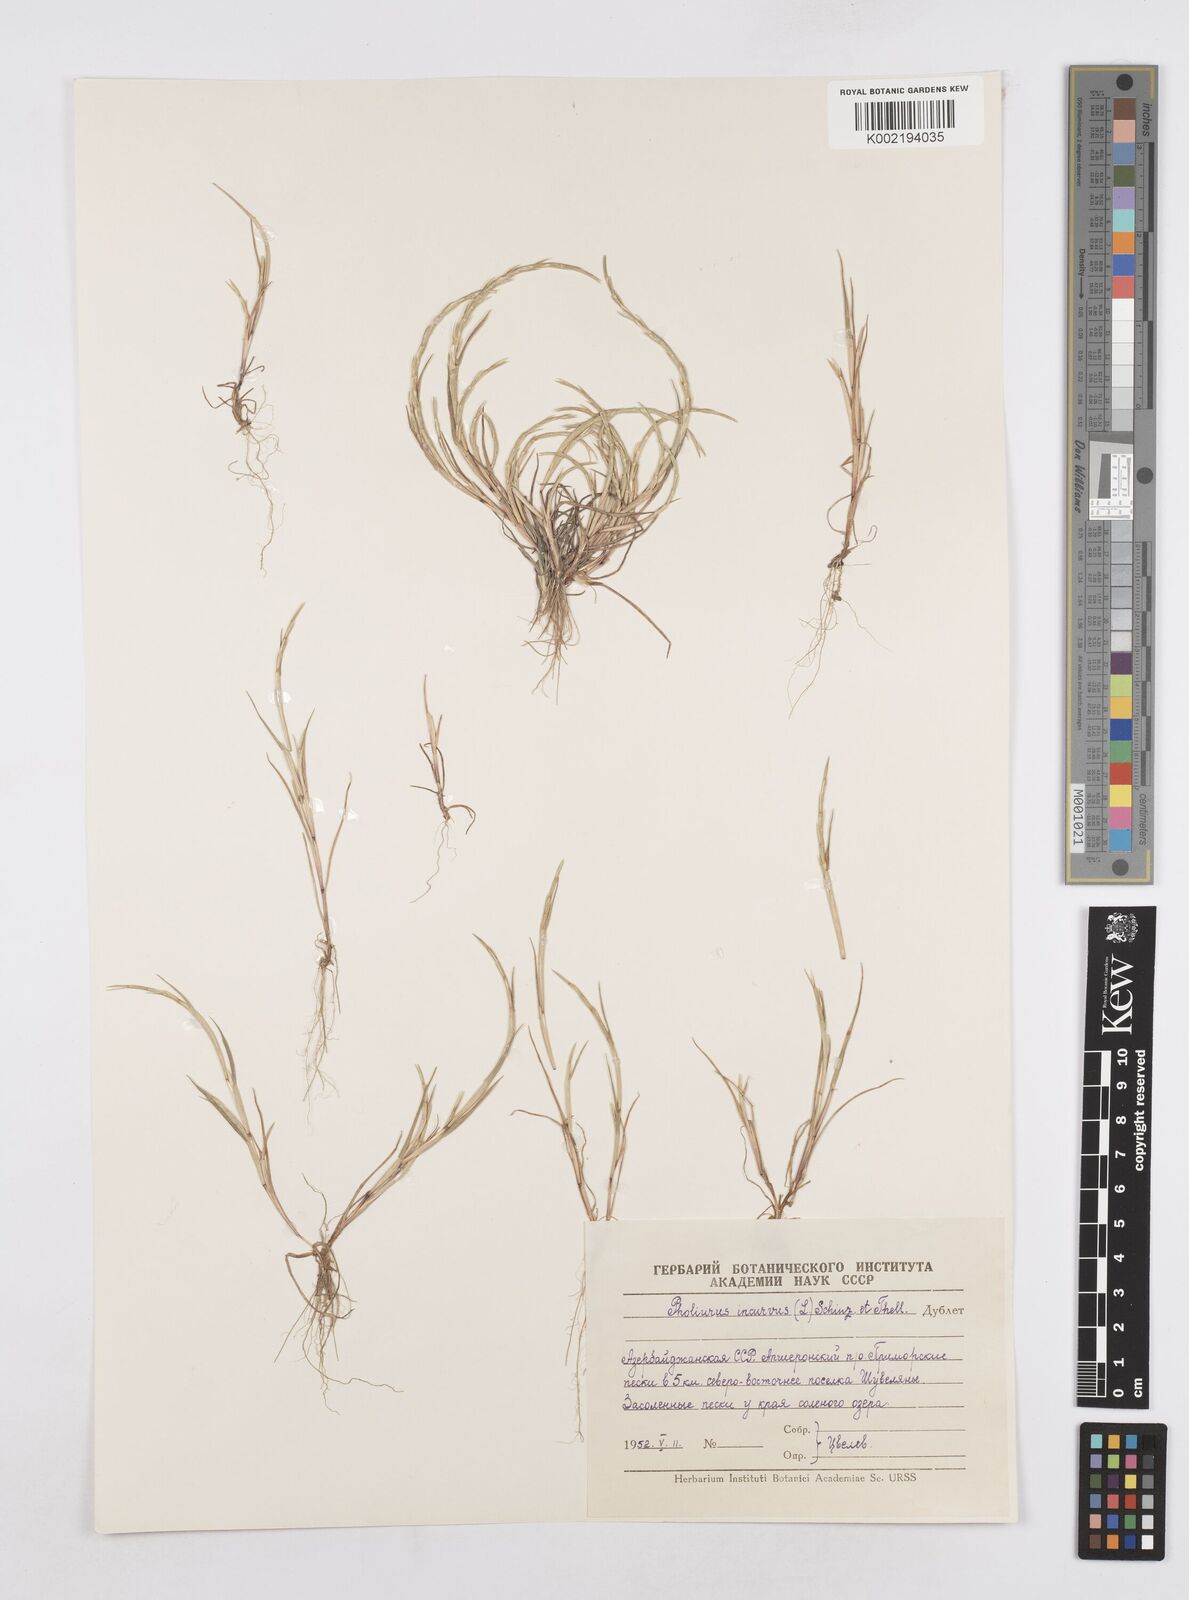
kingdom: Plantae
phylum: Tracheophyta
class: Liliopsida
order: Poales
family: Poaceae
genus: Parapholis
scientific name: Parapholis incurva
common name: Curved sicklegrass
